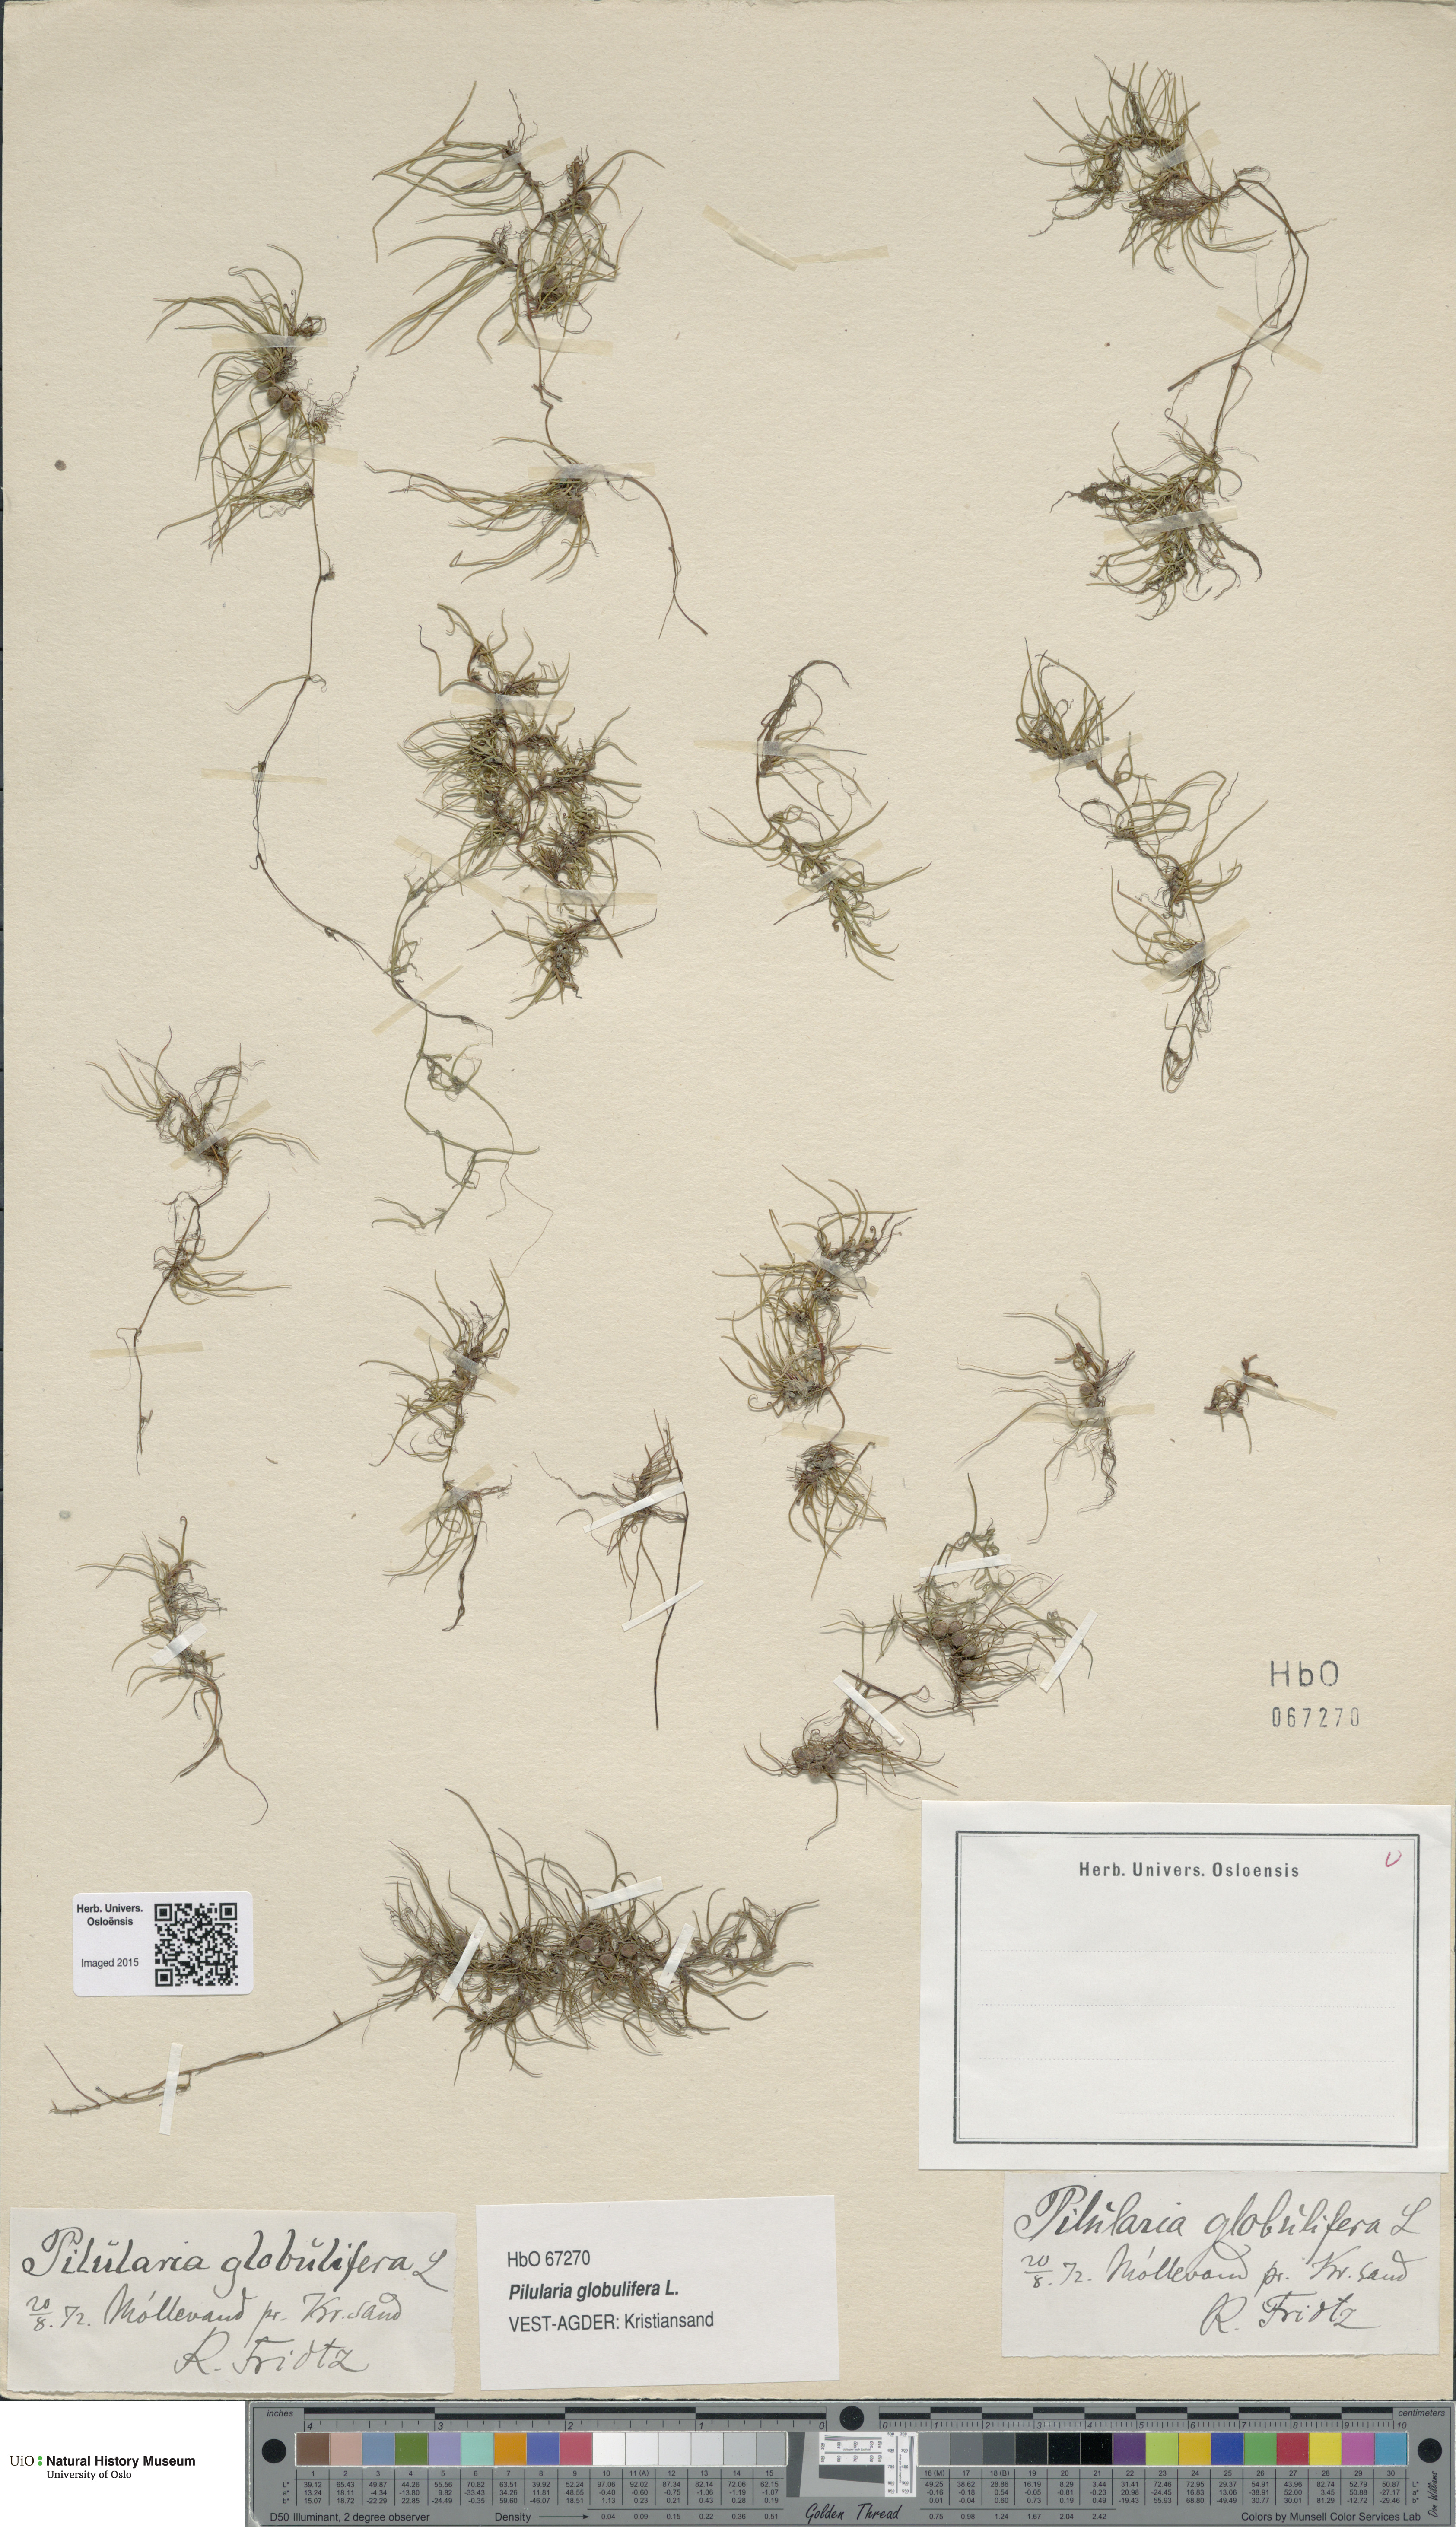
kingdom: Plantae
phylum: Tracheophyta
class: Polypodiopsida
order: Salviniales
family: Marsileaceae
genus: Pilularia
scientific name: Pilularia globulifera
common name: Pillwort
